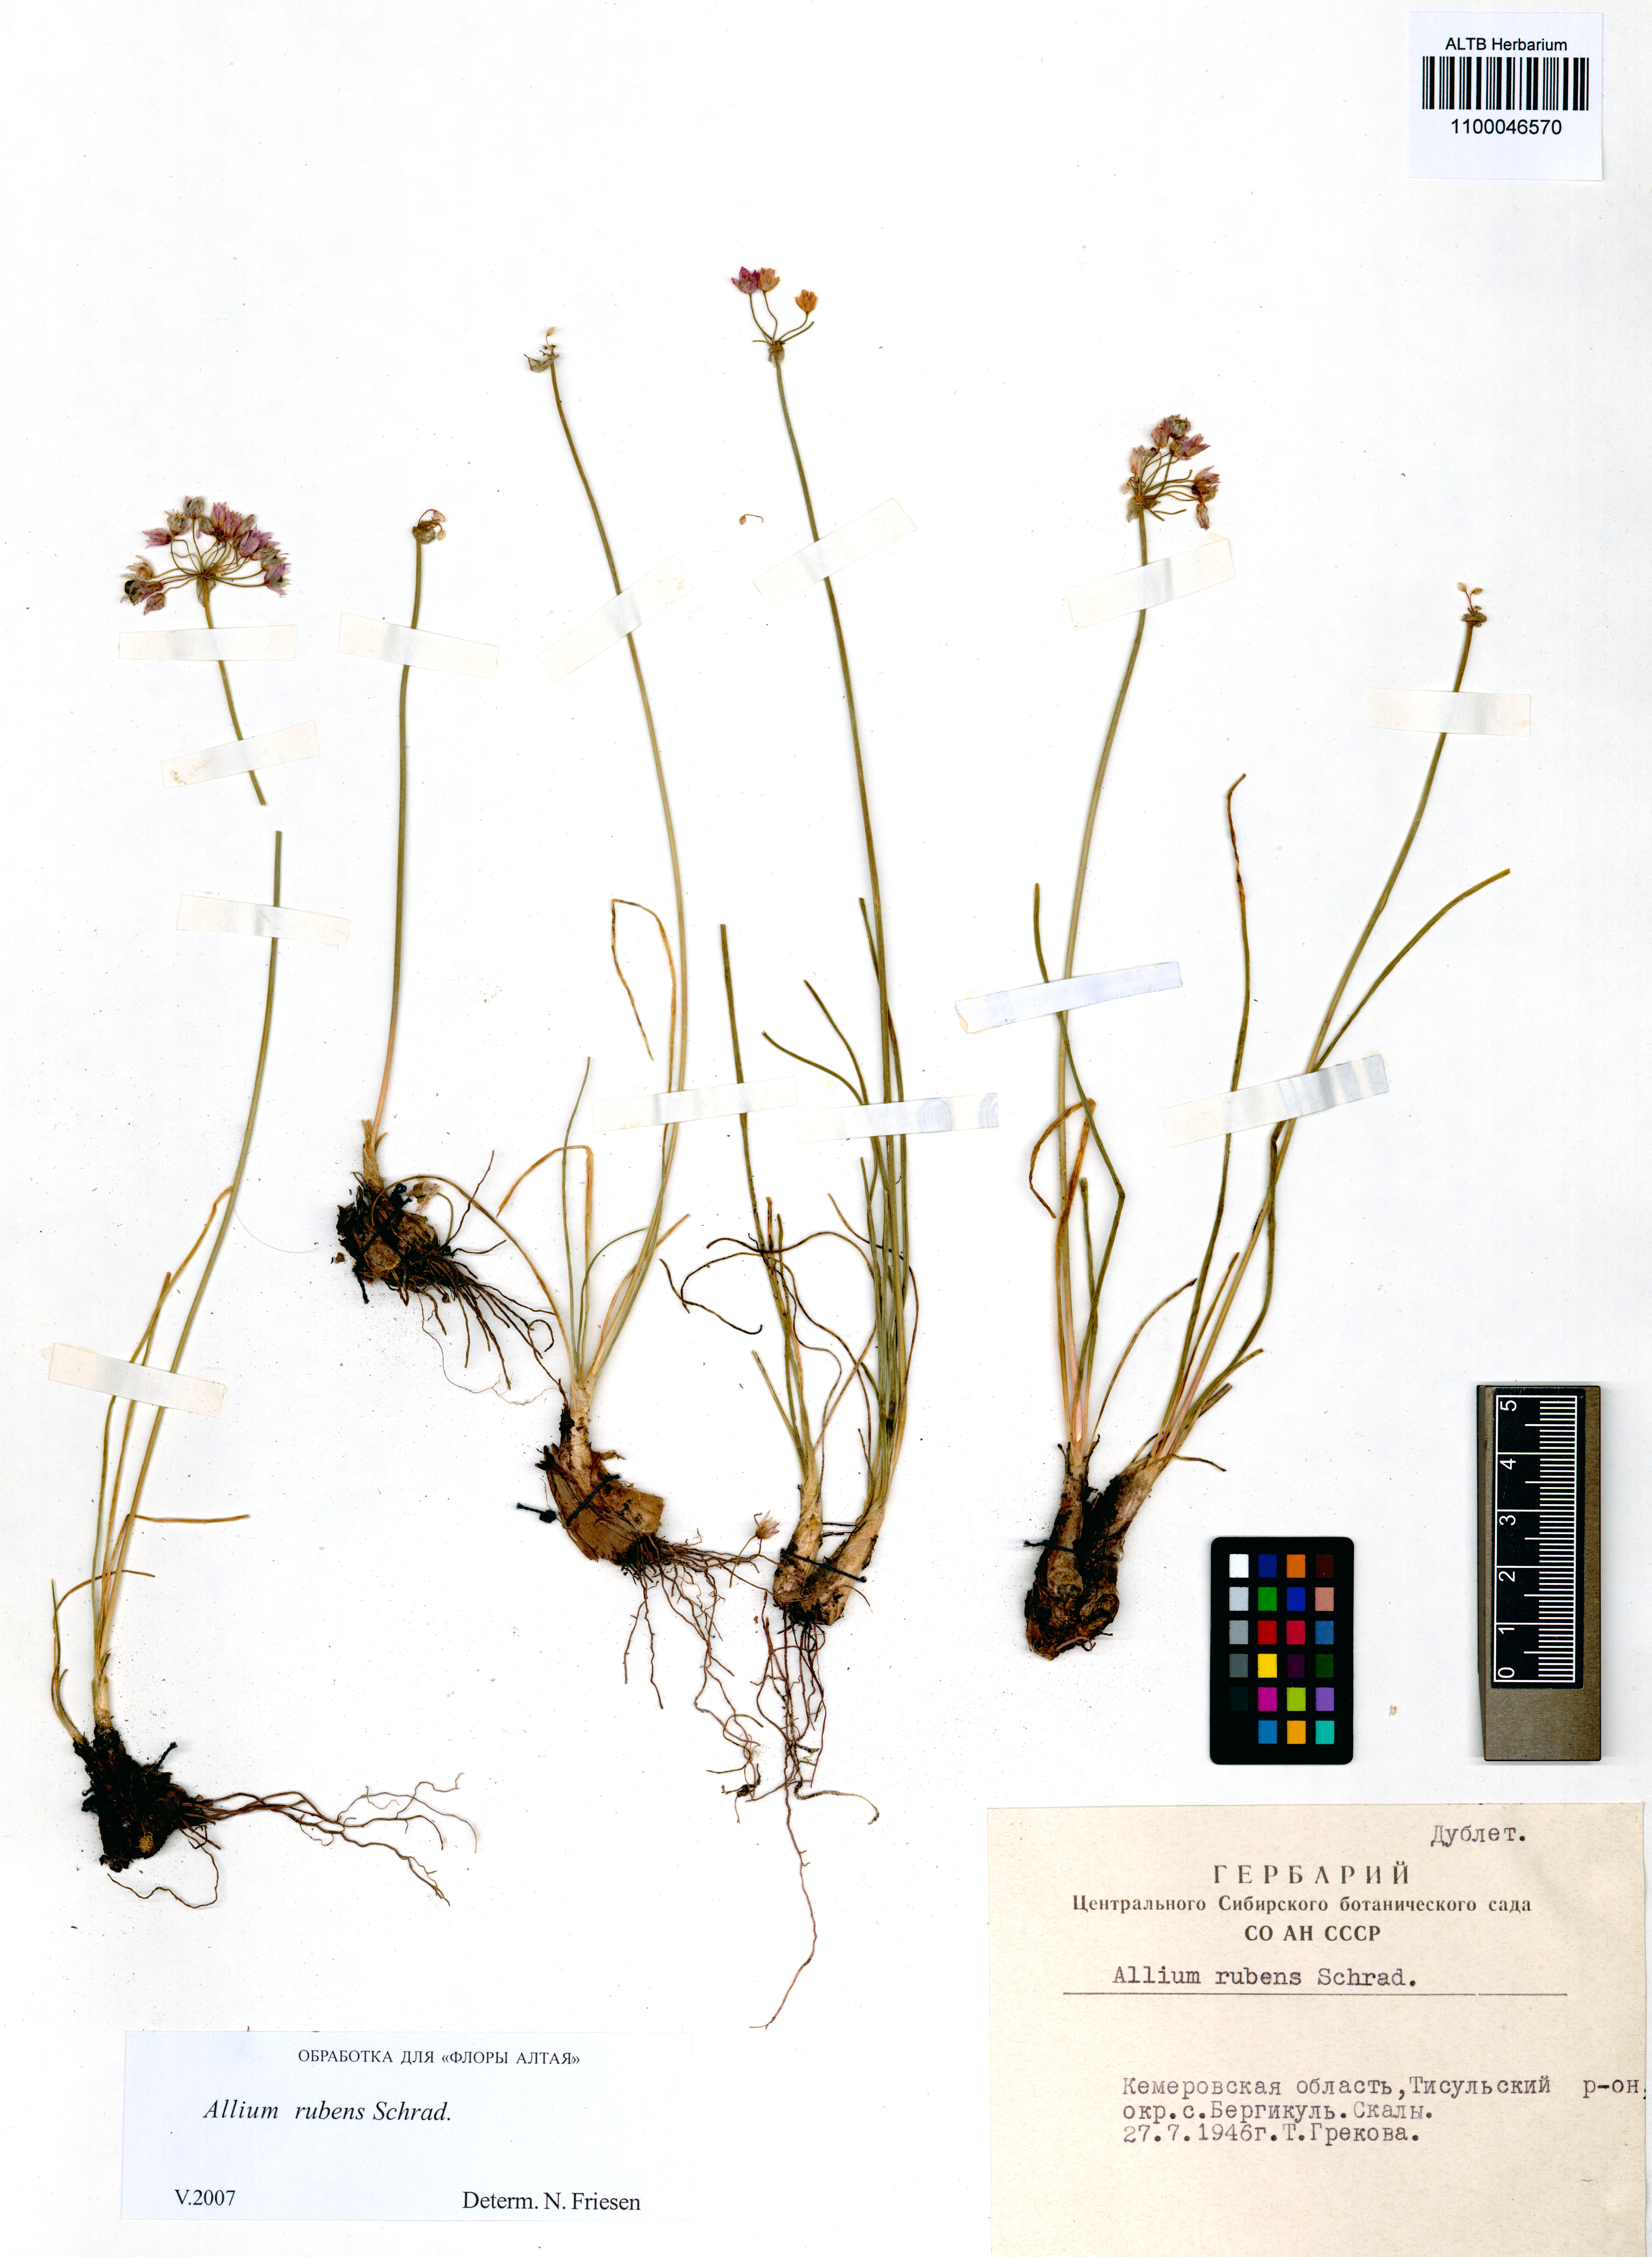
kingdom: Plantae
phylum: Tracheophyta
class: Liliopsida
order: Asparagales
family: Amaryllidaceae
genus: Allium
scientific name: Allium rubens
